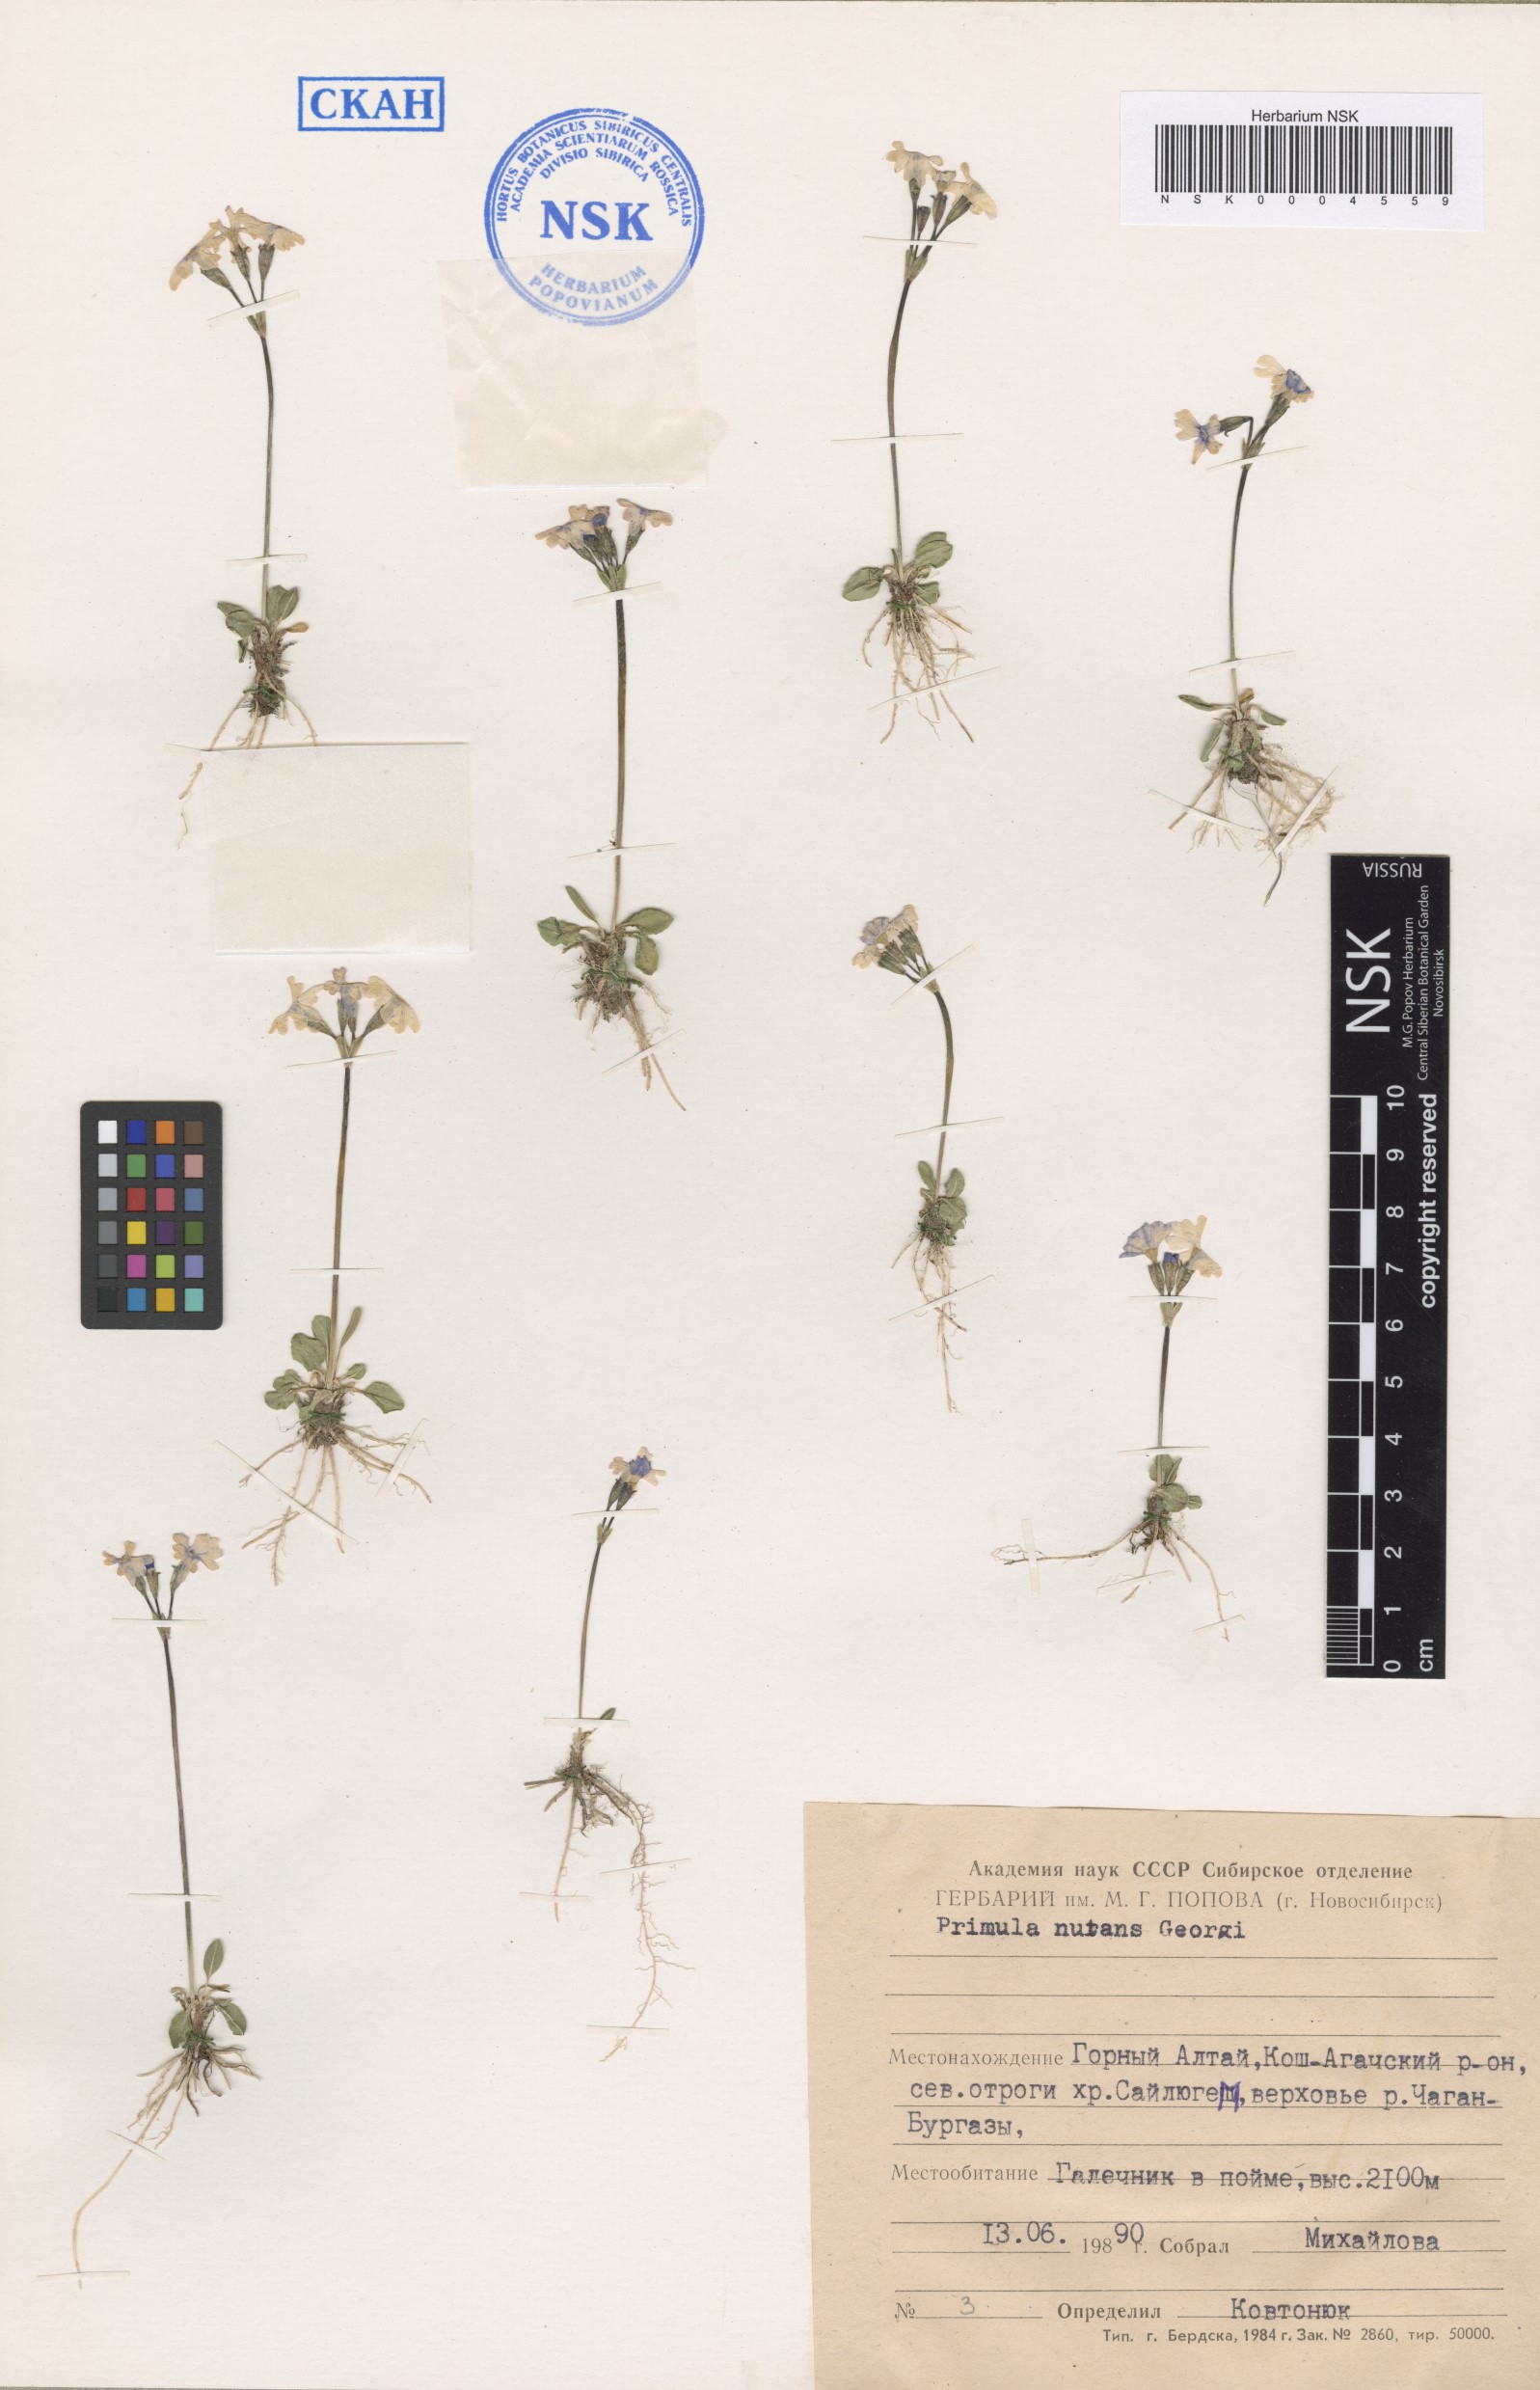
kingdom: Plantae
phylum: Tracheophyta
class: Magnoliopsida
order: Ericales
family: Primulaceae
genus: Primula
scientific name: Primula nutans
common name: Siberian primrose
